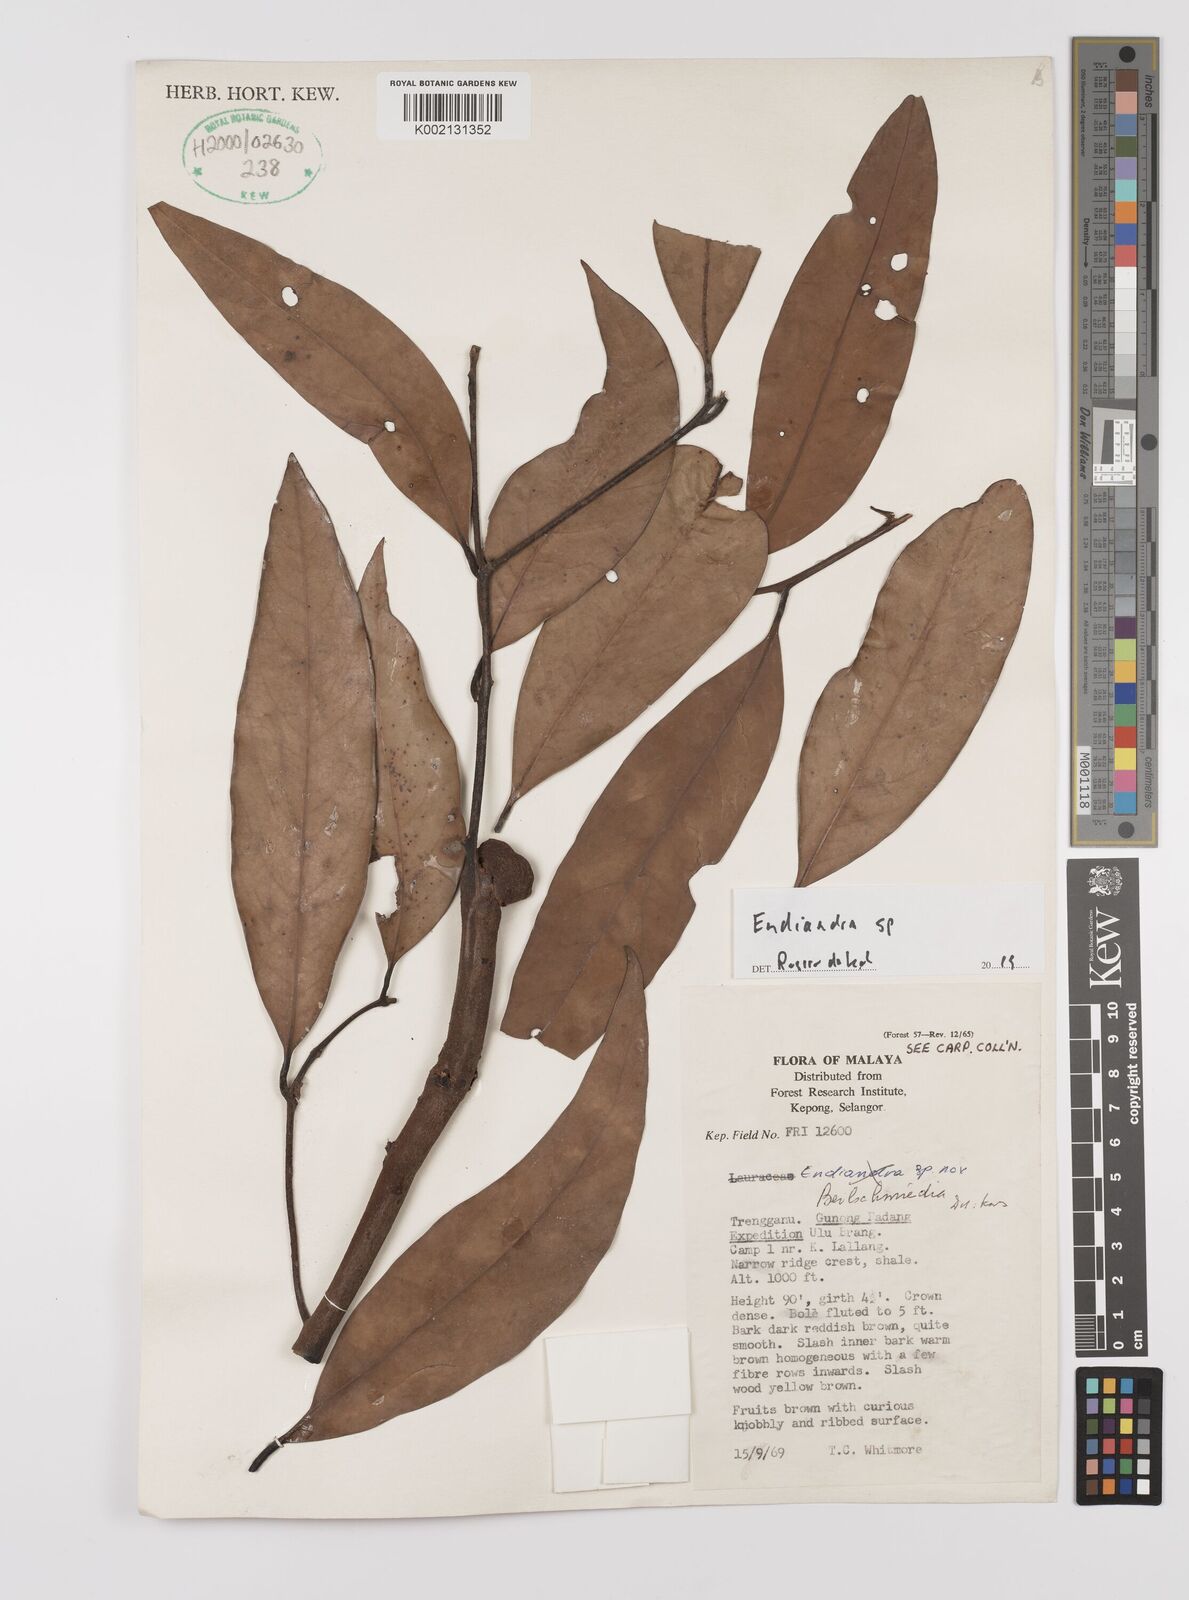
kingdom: Plantae
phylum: Tracheophyta
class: Magnoliopsida
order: Laurales
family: Lauraceae
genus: Endiandra
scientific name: Endiandra
